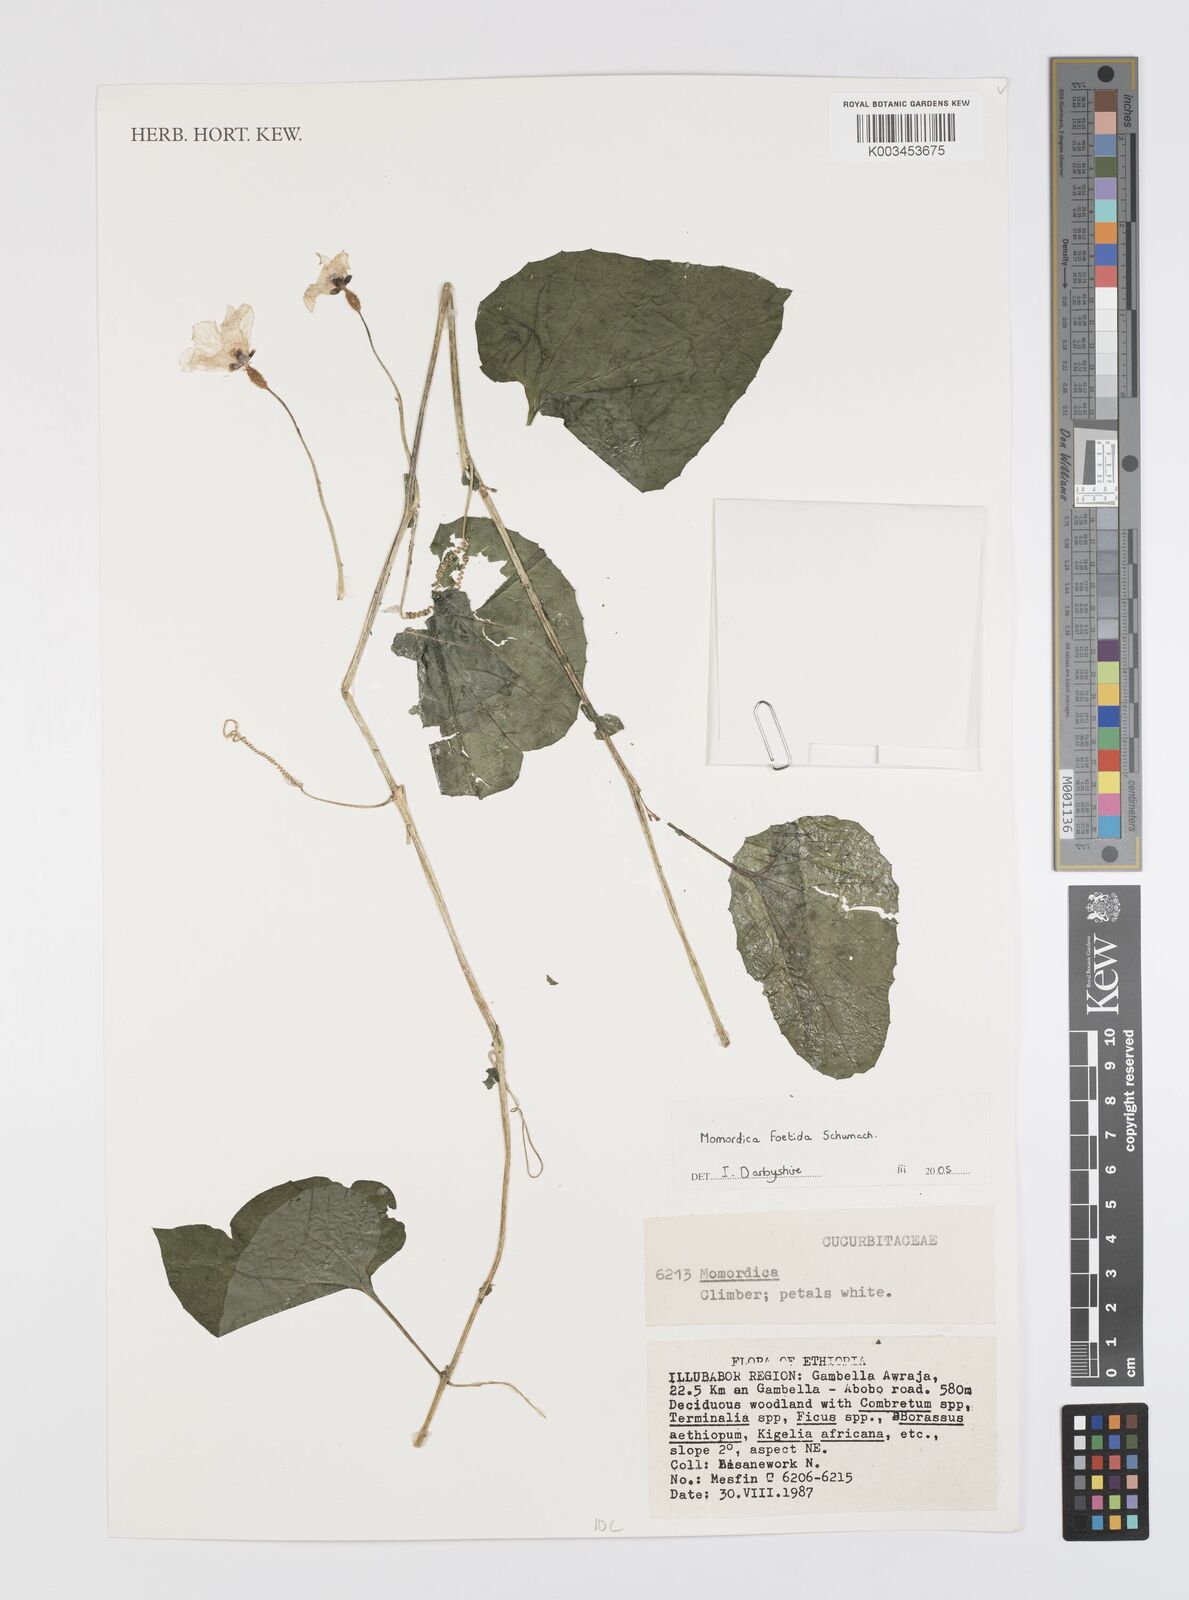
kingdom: Plantae
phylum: Tracheophyta
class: Magnoliopsida
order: Cucurbitales
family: Cucurbitaceae
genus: Momordica
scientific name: Momordica foetida
